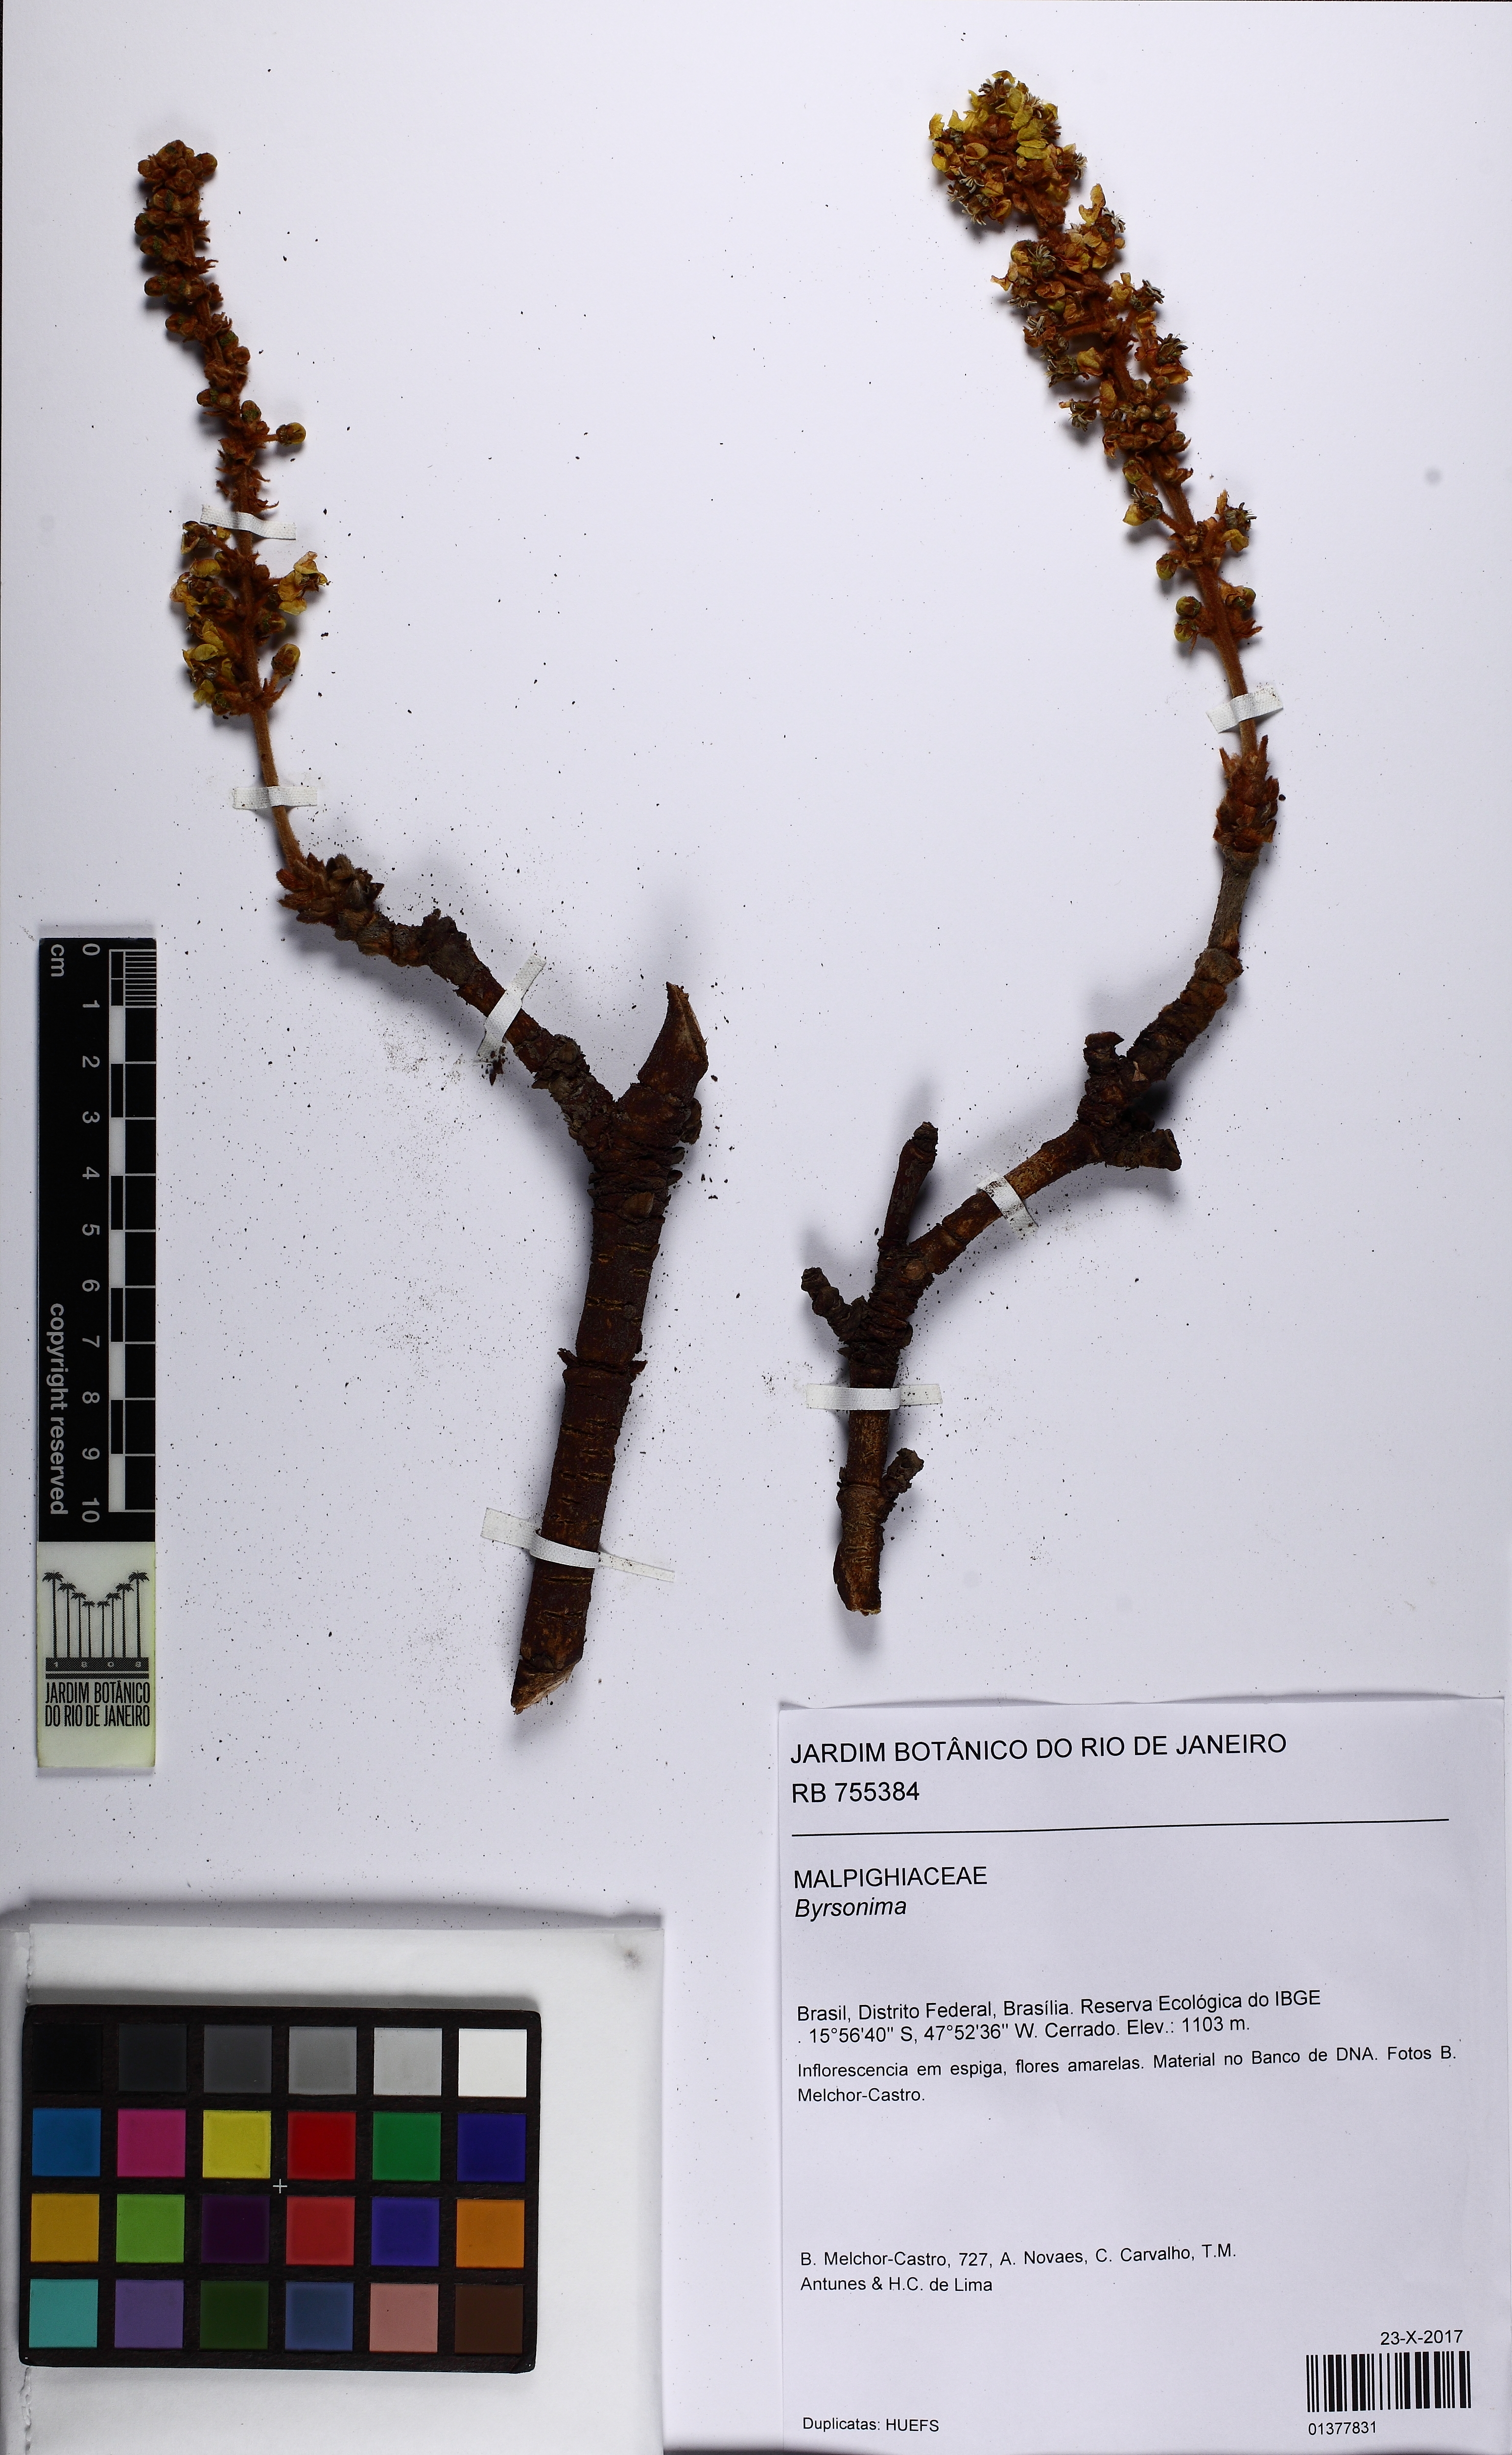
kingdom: Plantae
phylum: Tracheophyta
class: Magnoliopsida
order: Malpighiales
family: Malpighiaceae
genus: Byrsonima
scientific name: Byrsonima
